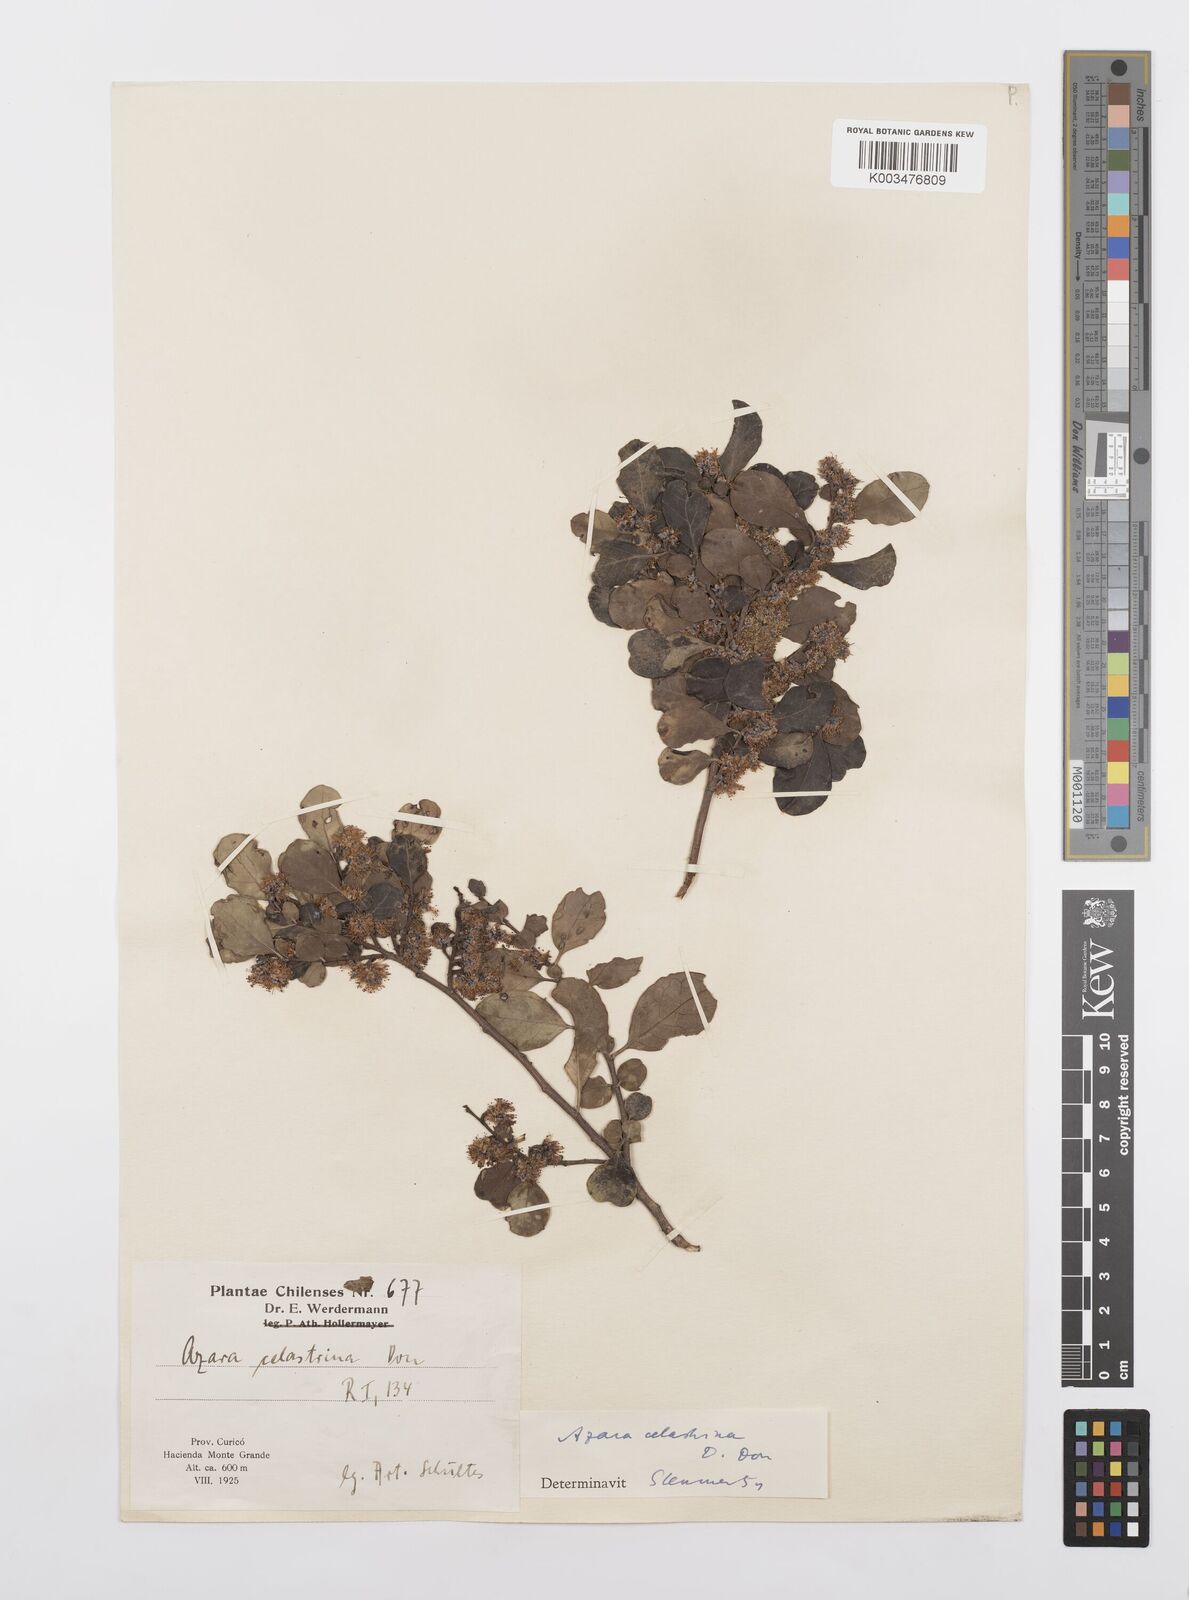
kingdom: Plantae
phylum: Tracheophyta
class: Magnoliopsida
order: Malpighiales
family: Salicaceae
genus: Azara
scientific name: Azara celastrina
